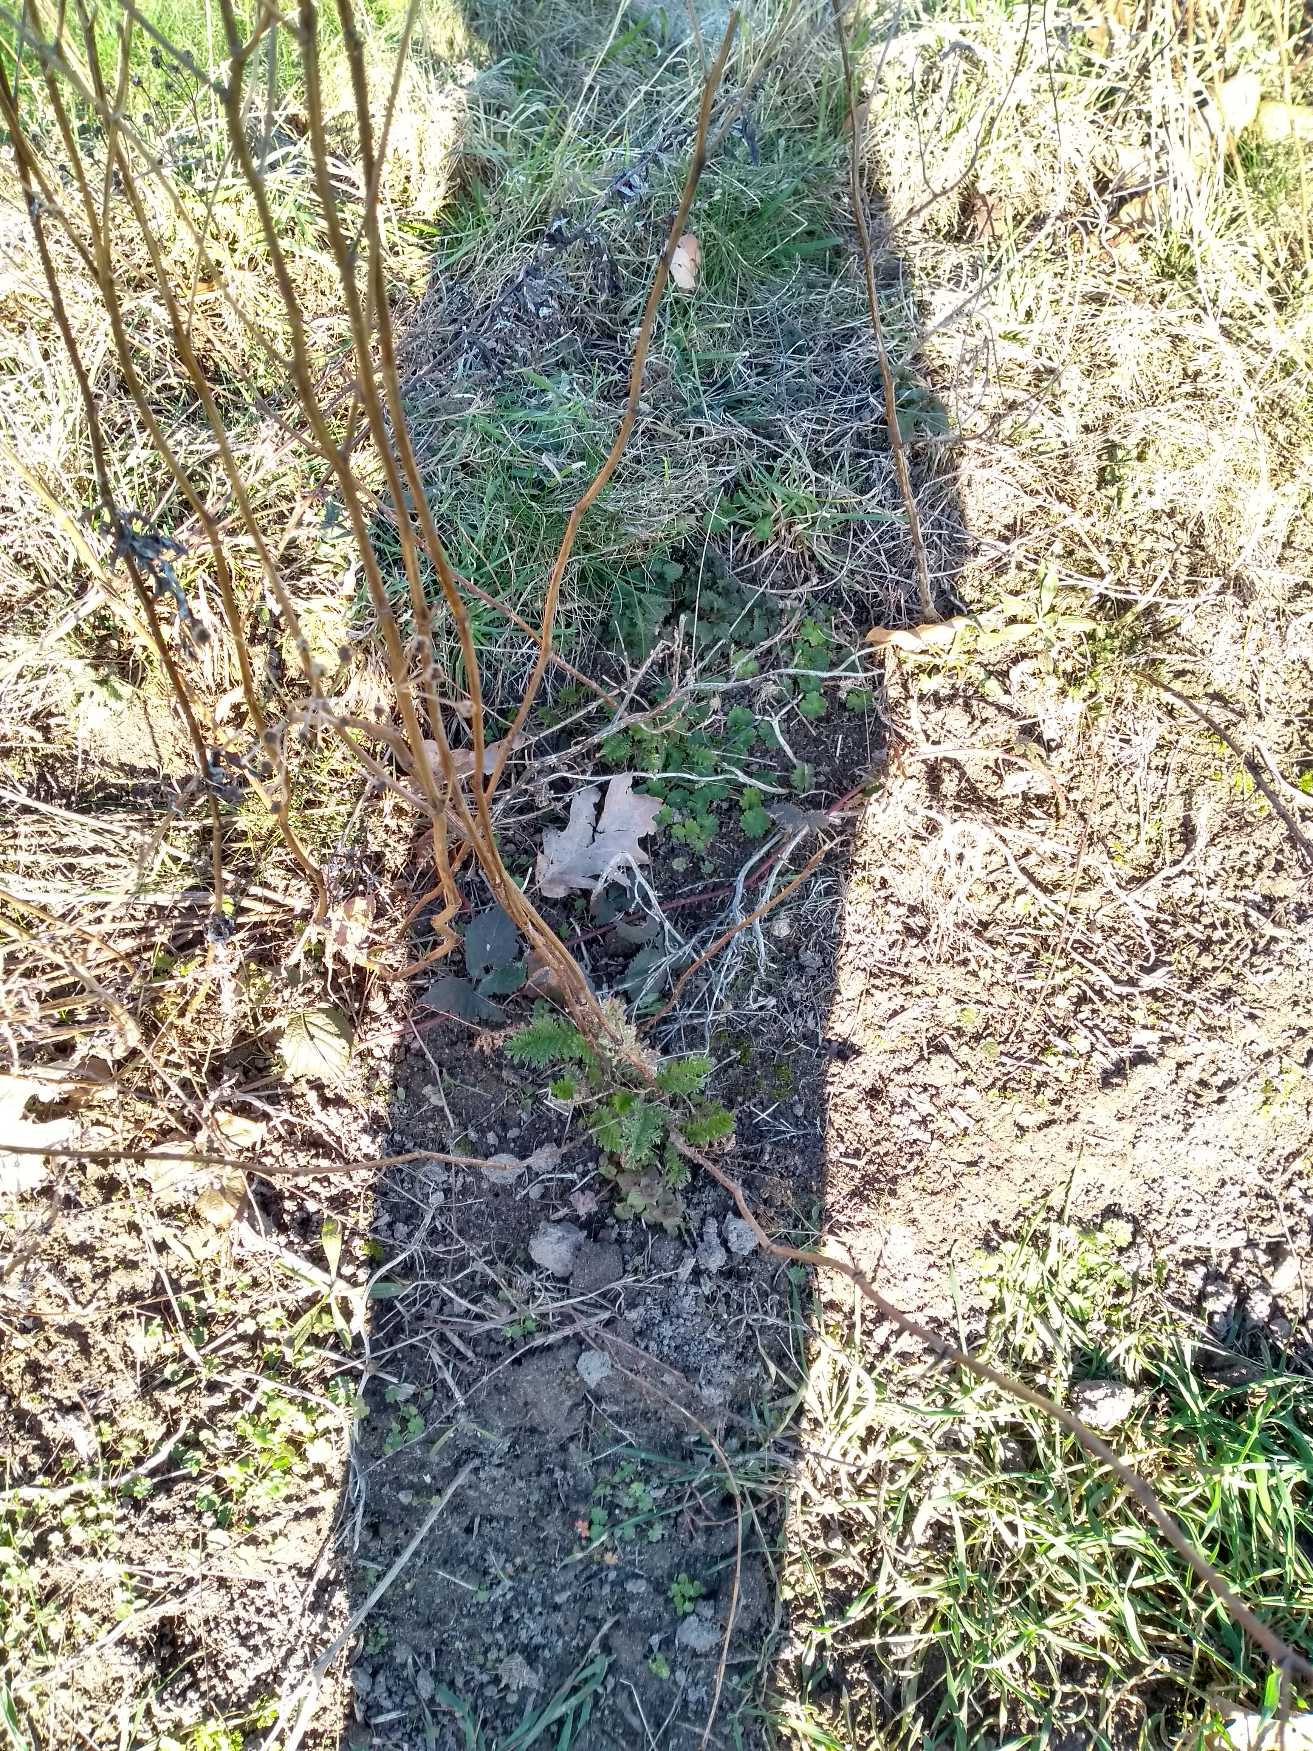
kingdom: Plantae
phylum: Tracheophyta
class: Magnoliopsida
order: Asterales
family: Asteraceae
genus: Tanacetum
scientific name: Tanacetum vulgare
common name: Rejnfan
